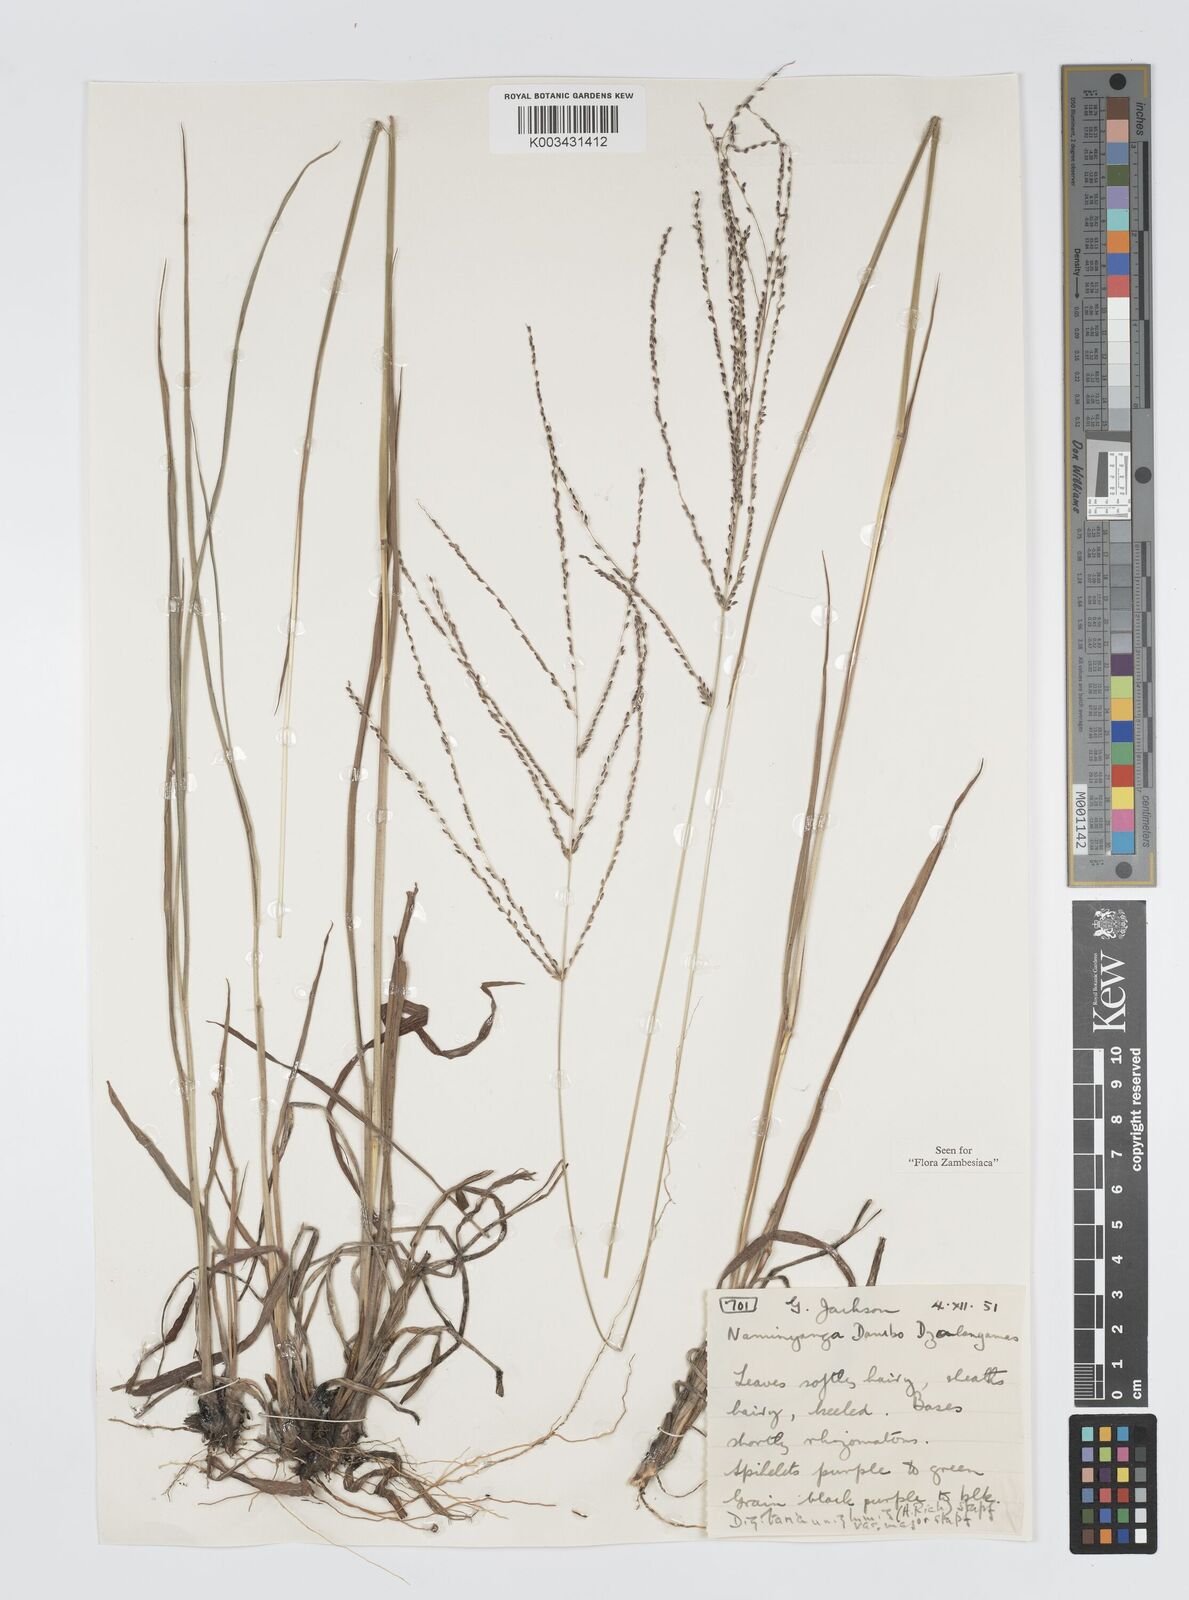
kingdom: Plantae
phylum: Tracheophyta
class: Liliopsida
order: Poales
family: Poaceae
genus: Digitaria
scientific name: Digitaria gazensis
